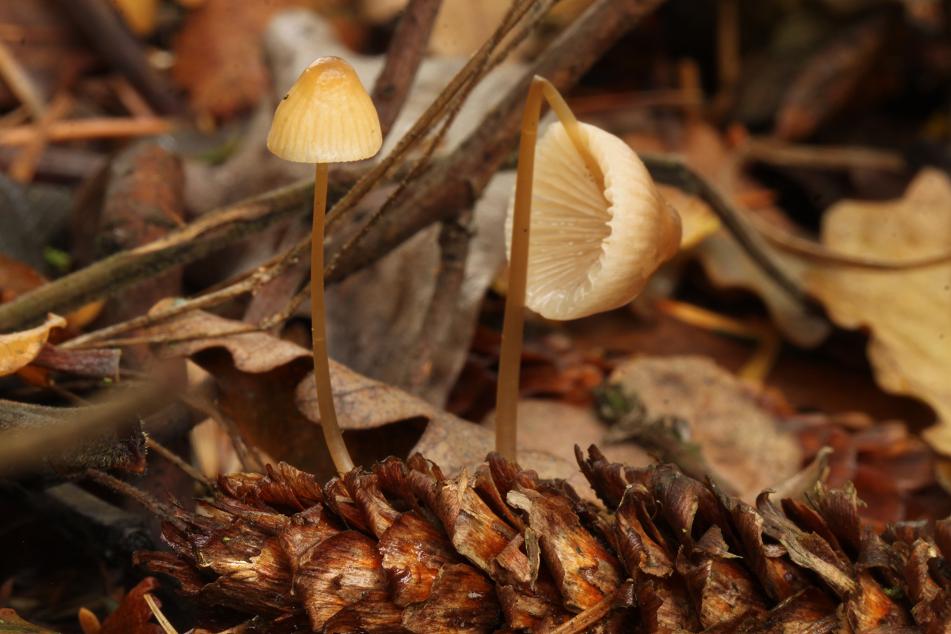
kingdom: Fungi
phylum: Basidiomycota
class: Agaricomycetes
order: Agaricales
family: Mycenaceae
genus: Mycena
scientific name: Mycena metata
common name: rødlig huesvamp
